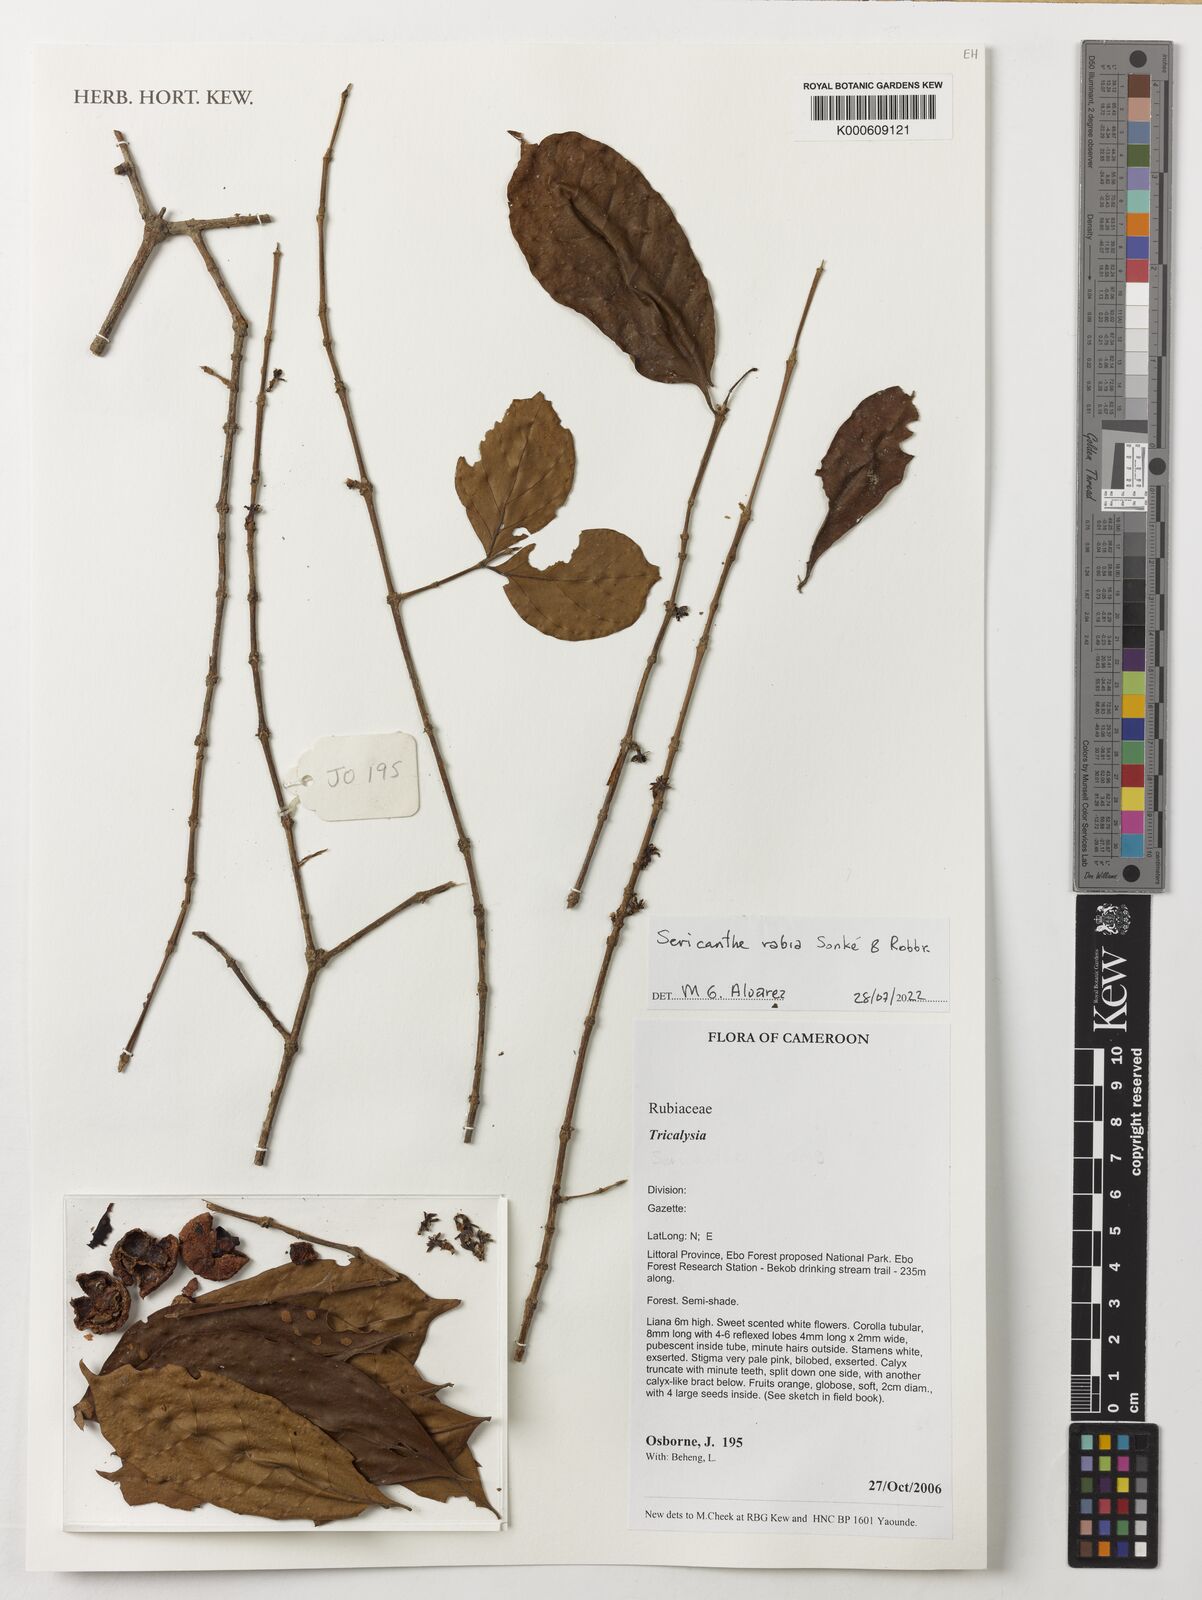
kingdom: Plantae
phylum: Tracheophyta
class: Magnoliopsida
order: Gentianales
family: Rubiaceae
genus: Sericanthe
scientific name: Sericanthe rabia
